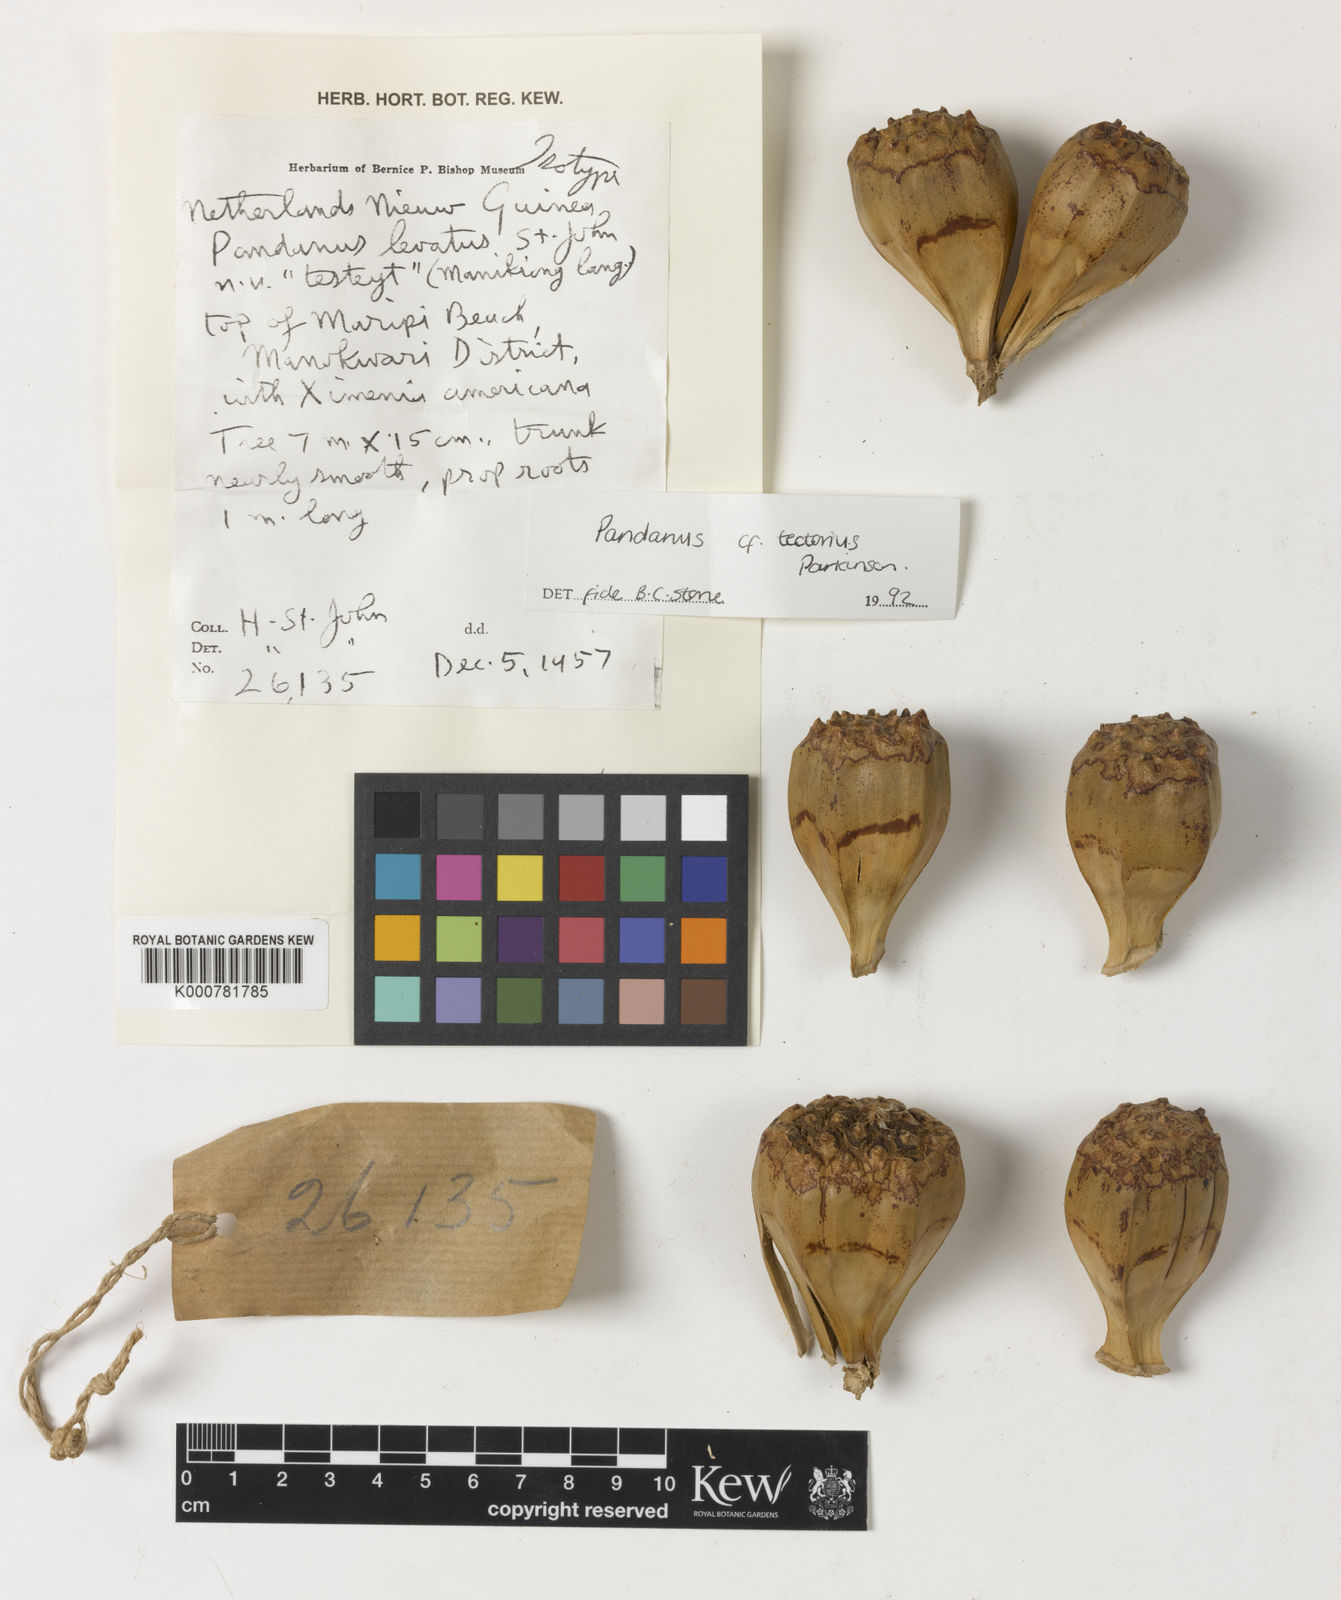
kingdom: Plantae
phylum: Tracheophyta
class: Liliopsida
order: Pandanales
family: Pandanaceae
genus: Pandanus
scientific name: Pandanus
